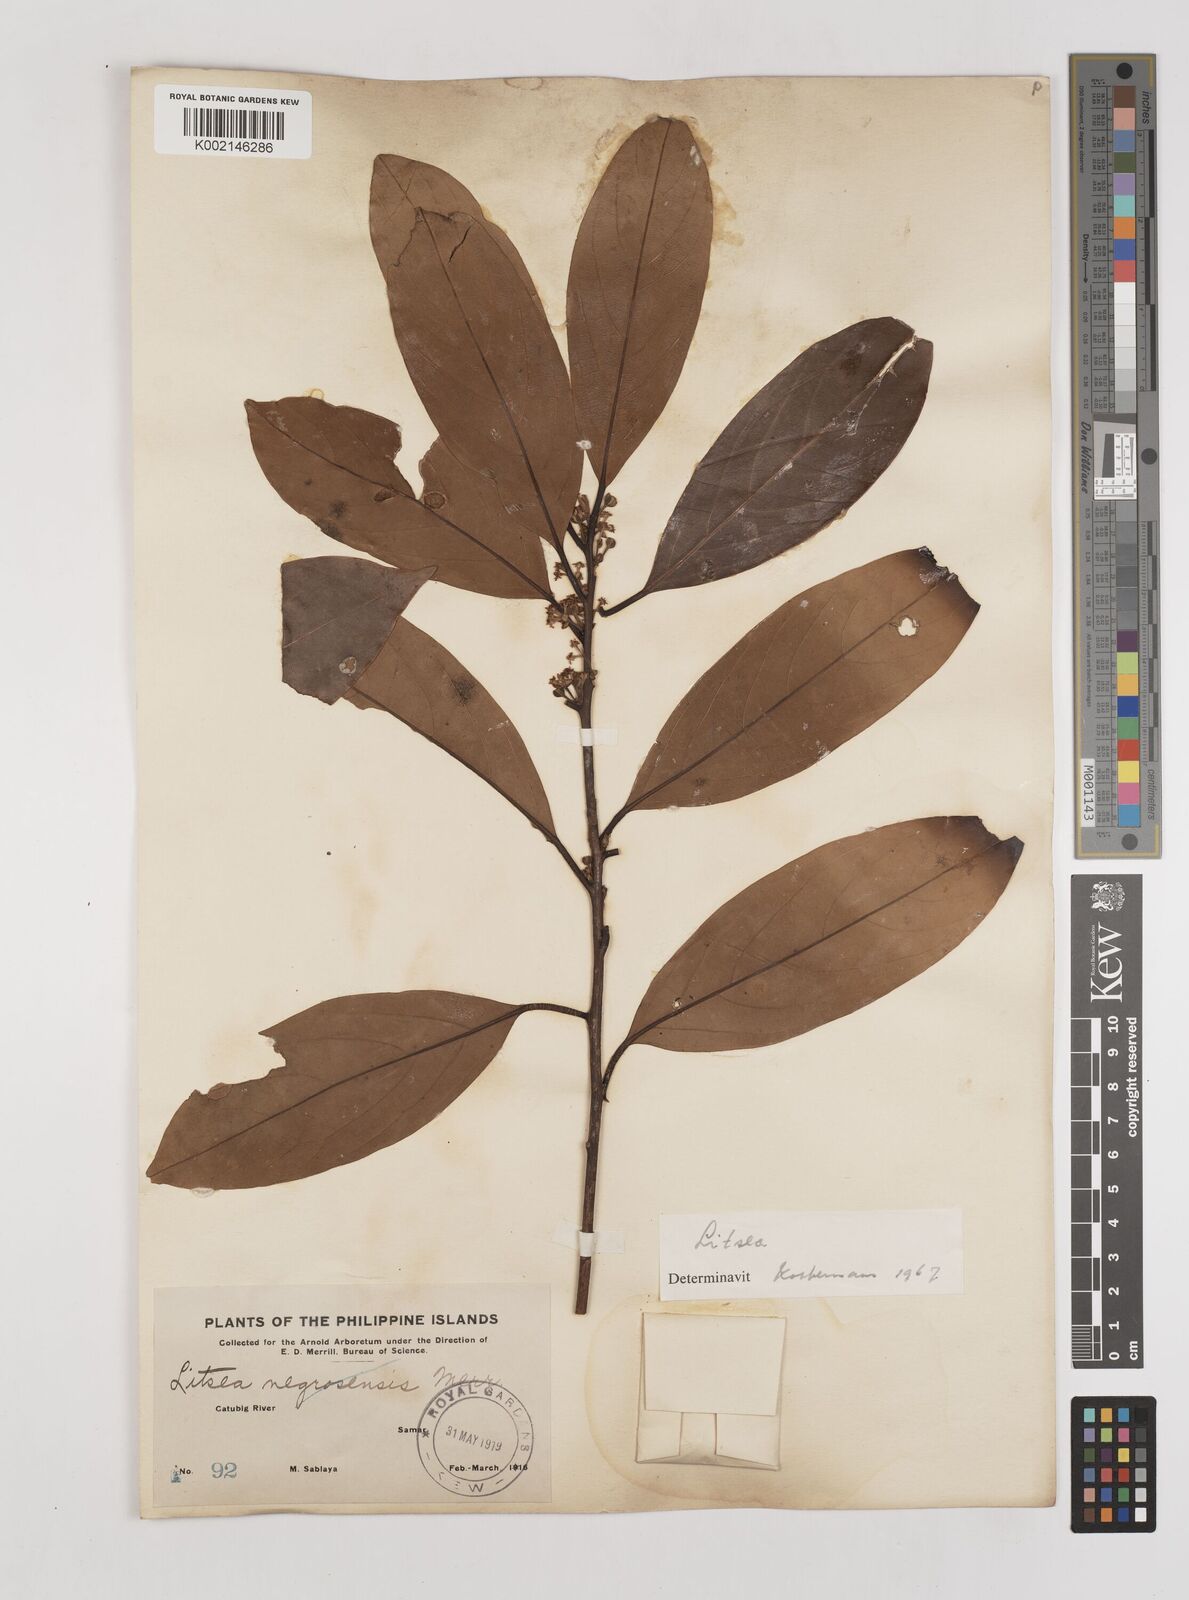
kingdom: Plantae
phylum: Tracheophyta
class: Magnoliopsida
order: Laurales
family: Lauraceae
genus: Litsea
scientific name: Litsea
